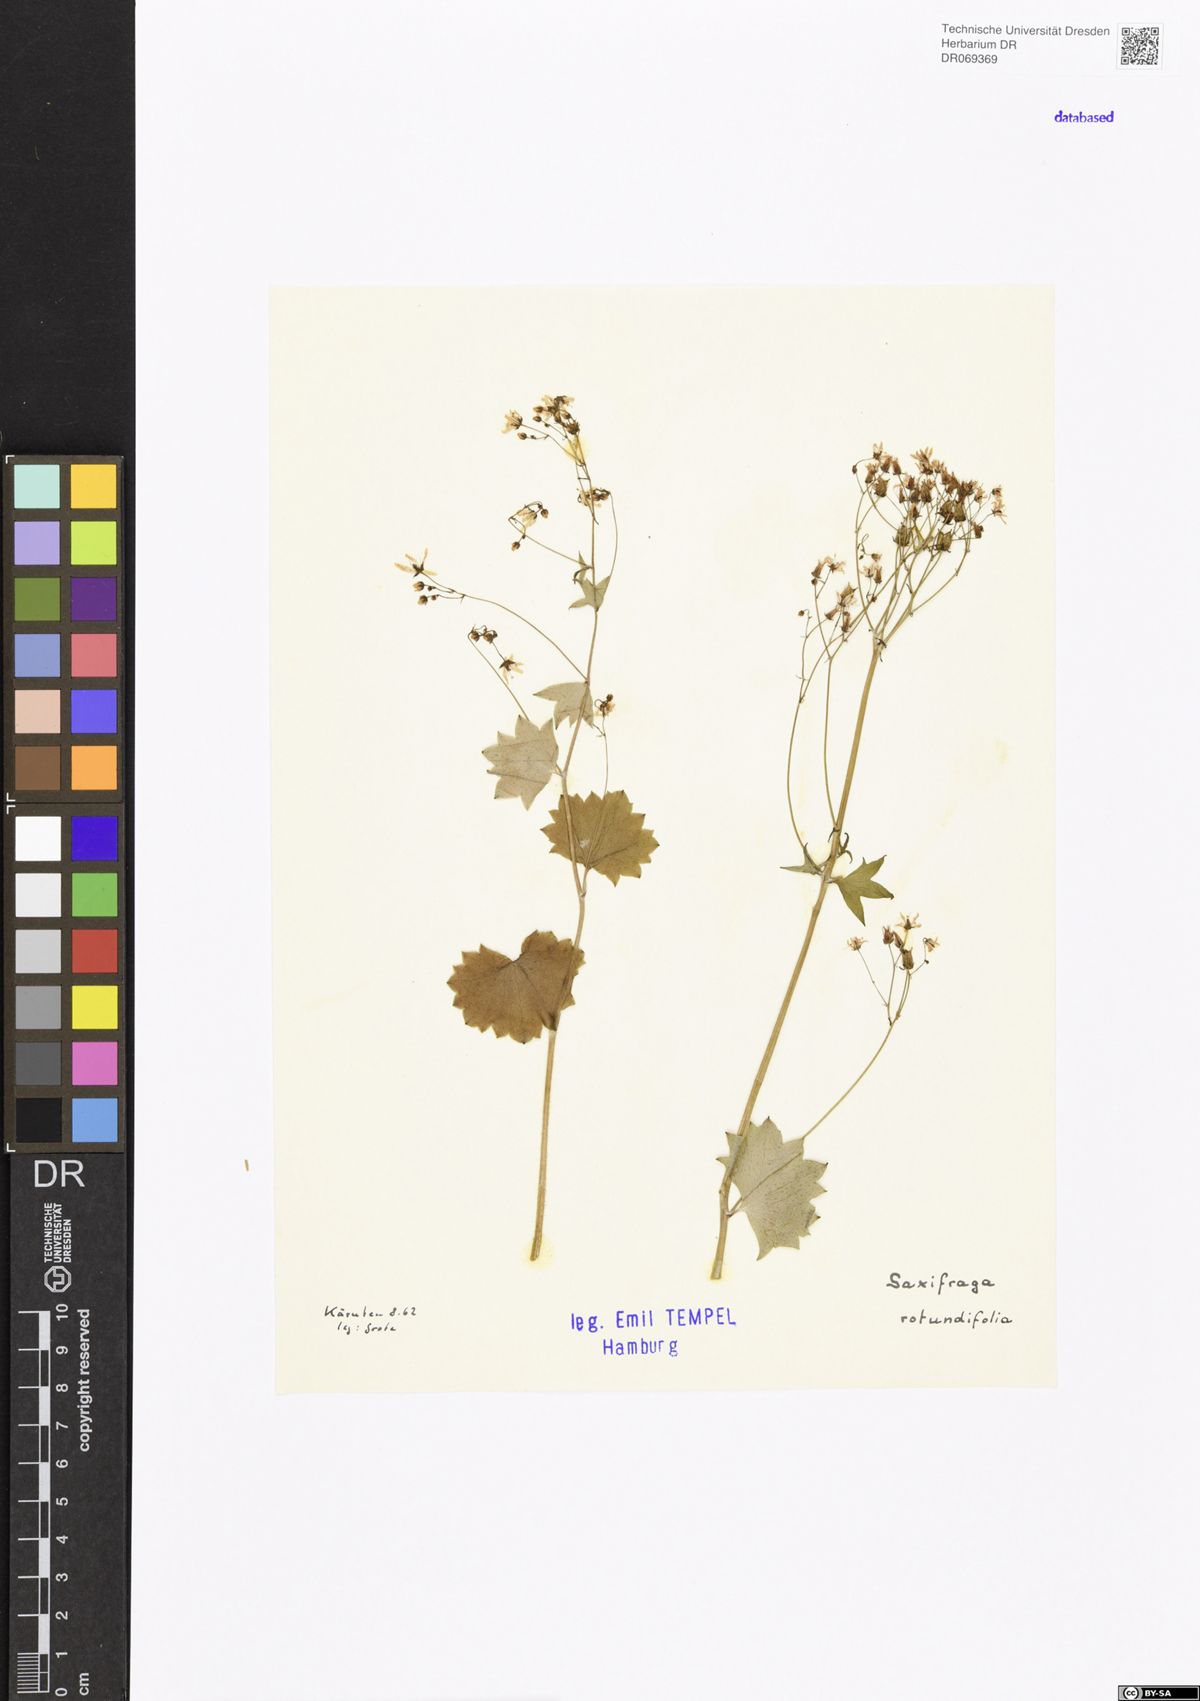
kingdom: Plantae
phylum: Tracheophyta
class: Magnoliopsida
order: Saxifragales
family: Saxifragaceae
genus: Saxifraga
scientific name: Saxifraga rotundifolia
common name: Round-leaved saxifrage
